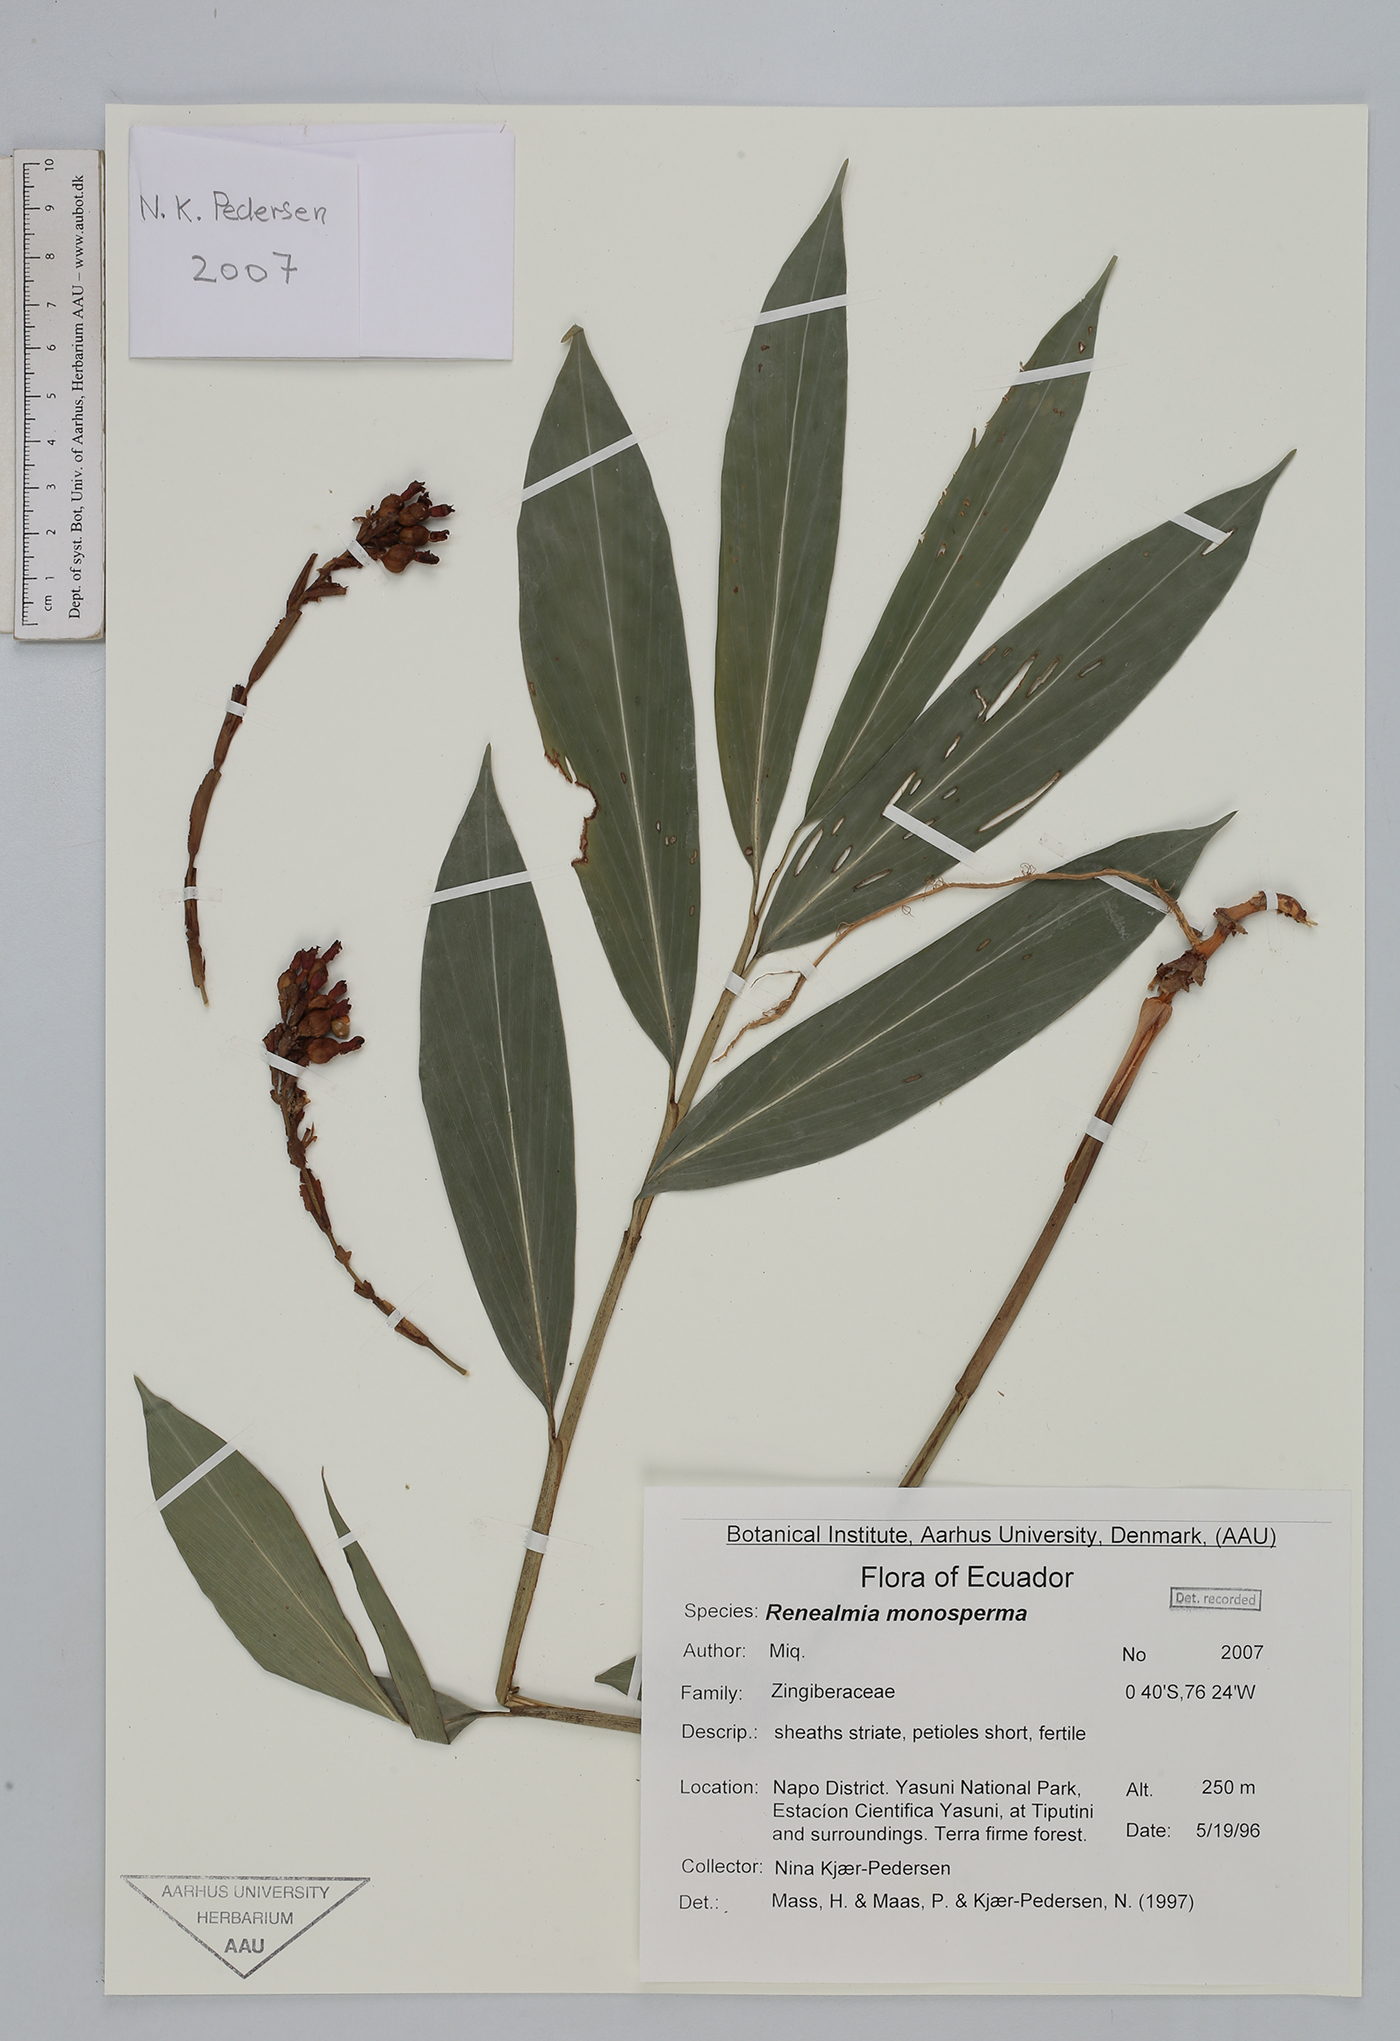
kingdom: Plantae
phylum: Tracheophyta
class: Liliopsida
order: Zingiberales
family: Zingiberaceae
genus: Renealmia
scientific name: Renealmia monosperma
